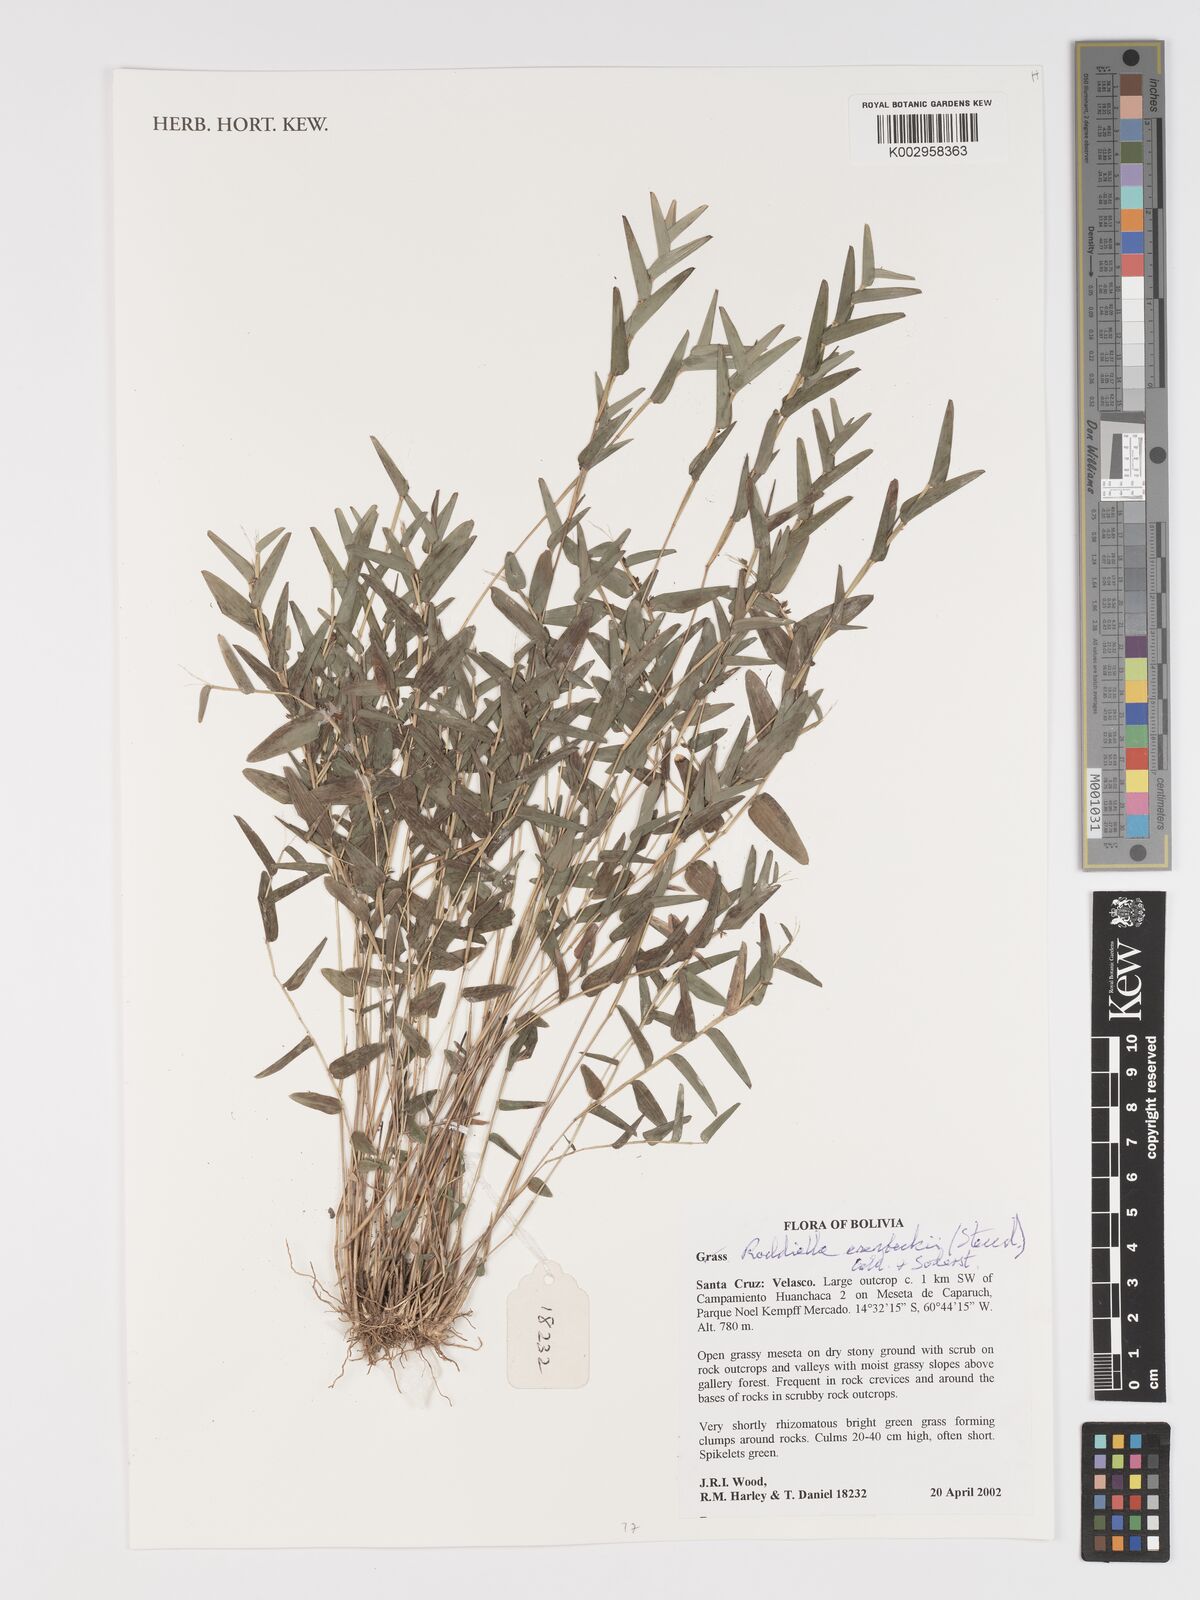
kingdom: Plantae
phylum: Tracheophyta
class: Liliopsida
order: Poales
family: Poaceae
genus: Raddiella
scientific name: Raddiella esenbeckii
